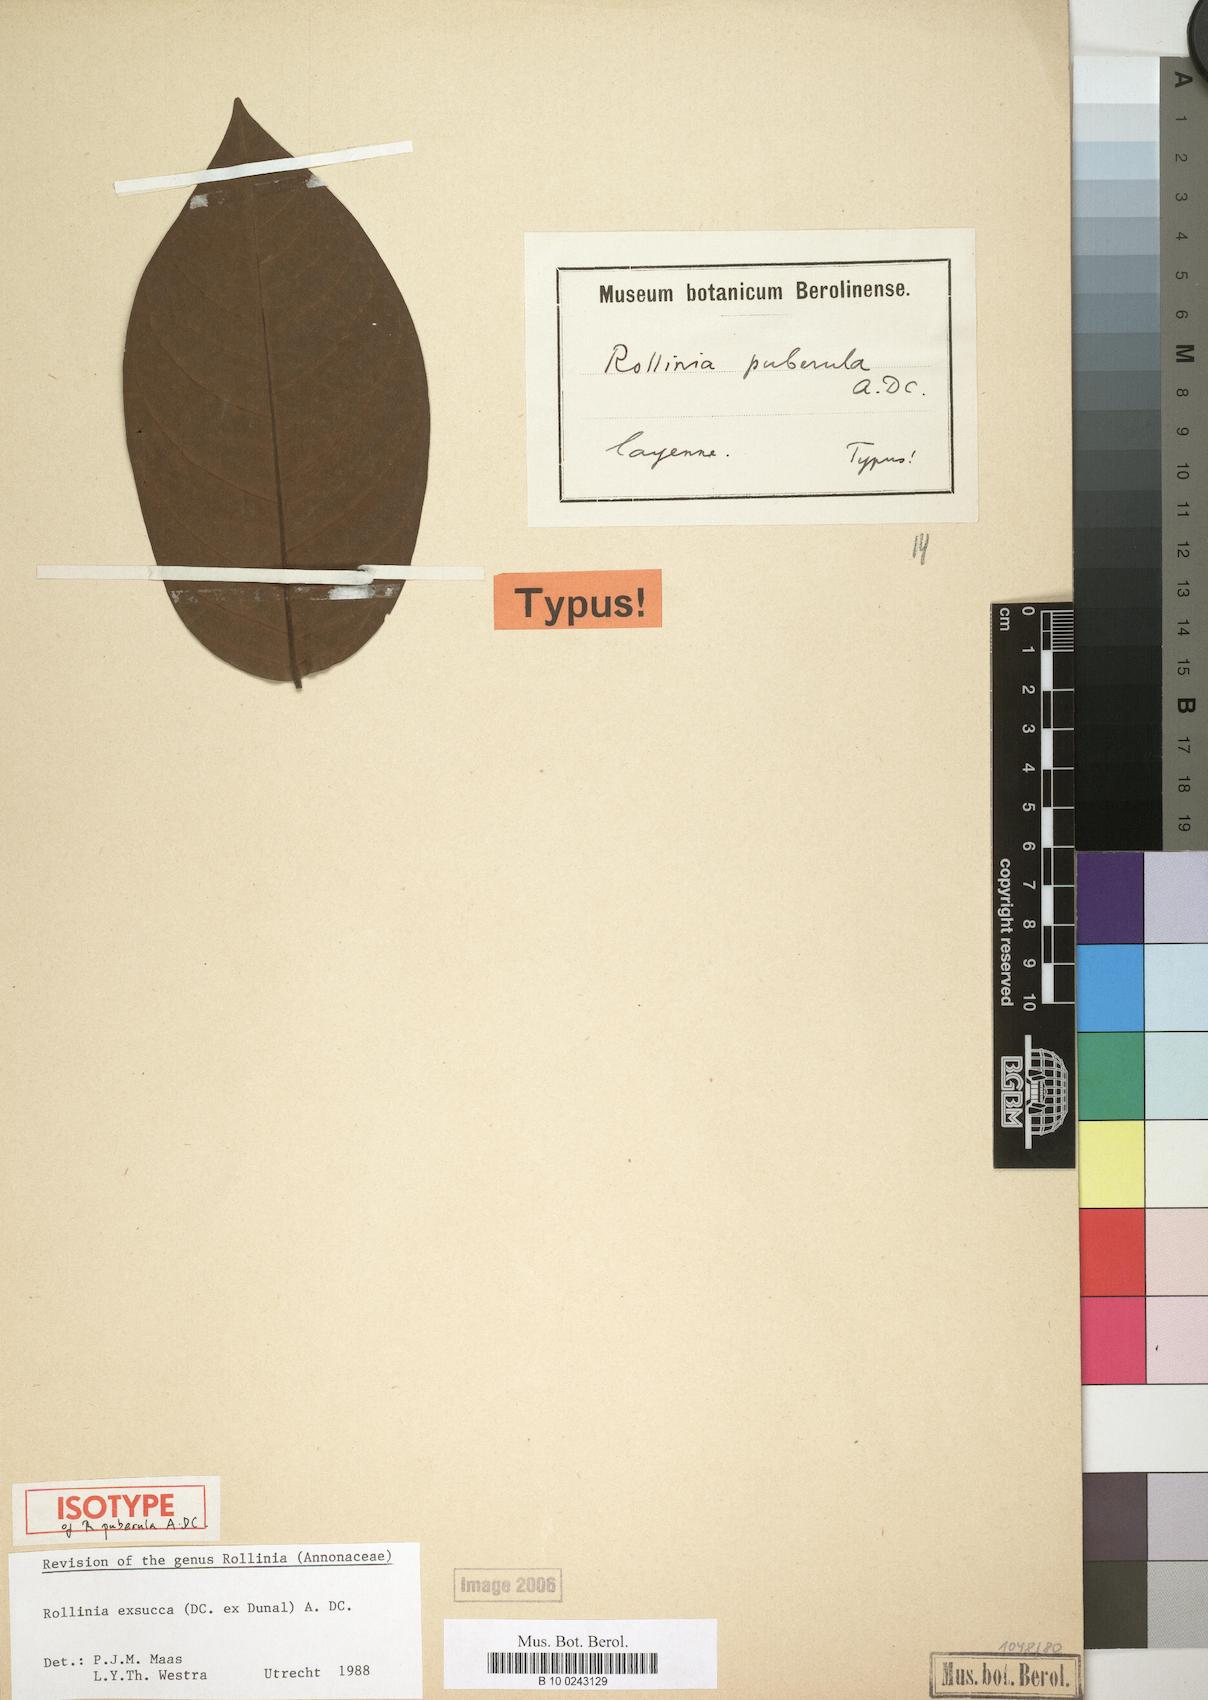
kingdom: Plantae
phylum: Tracheophyta
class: Magnoliopsida
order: Magnoliales
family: Annonaceae
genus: Annona
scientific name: Annona exsucca
